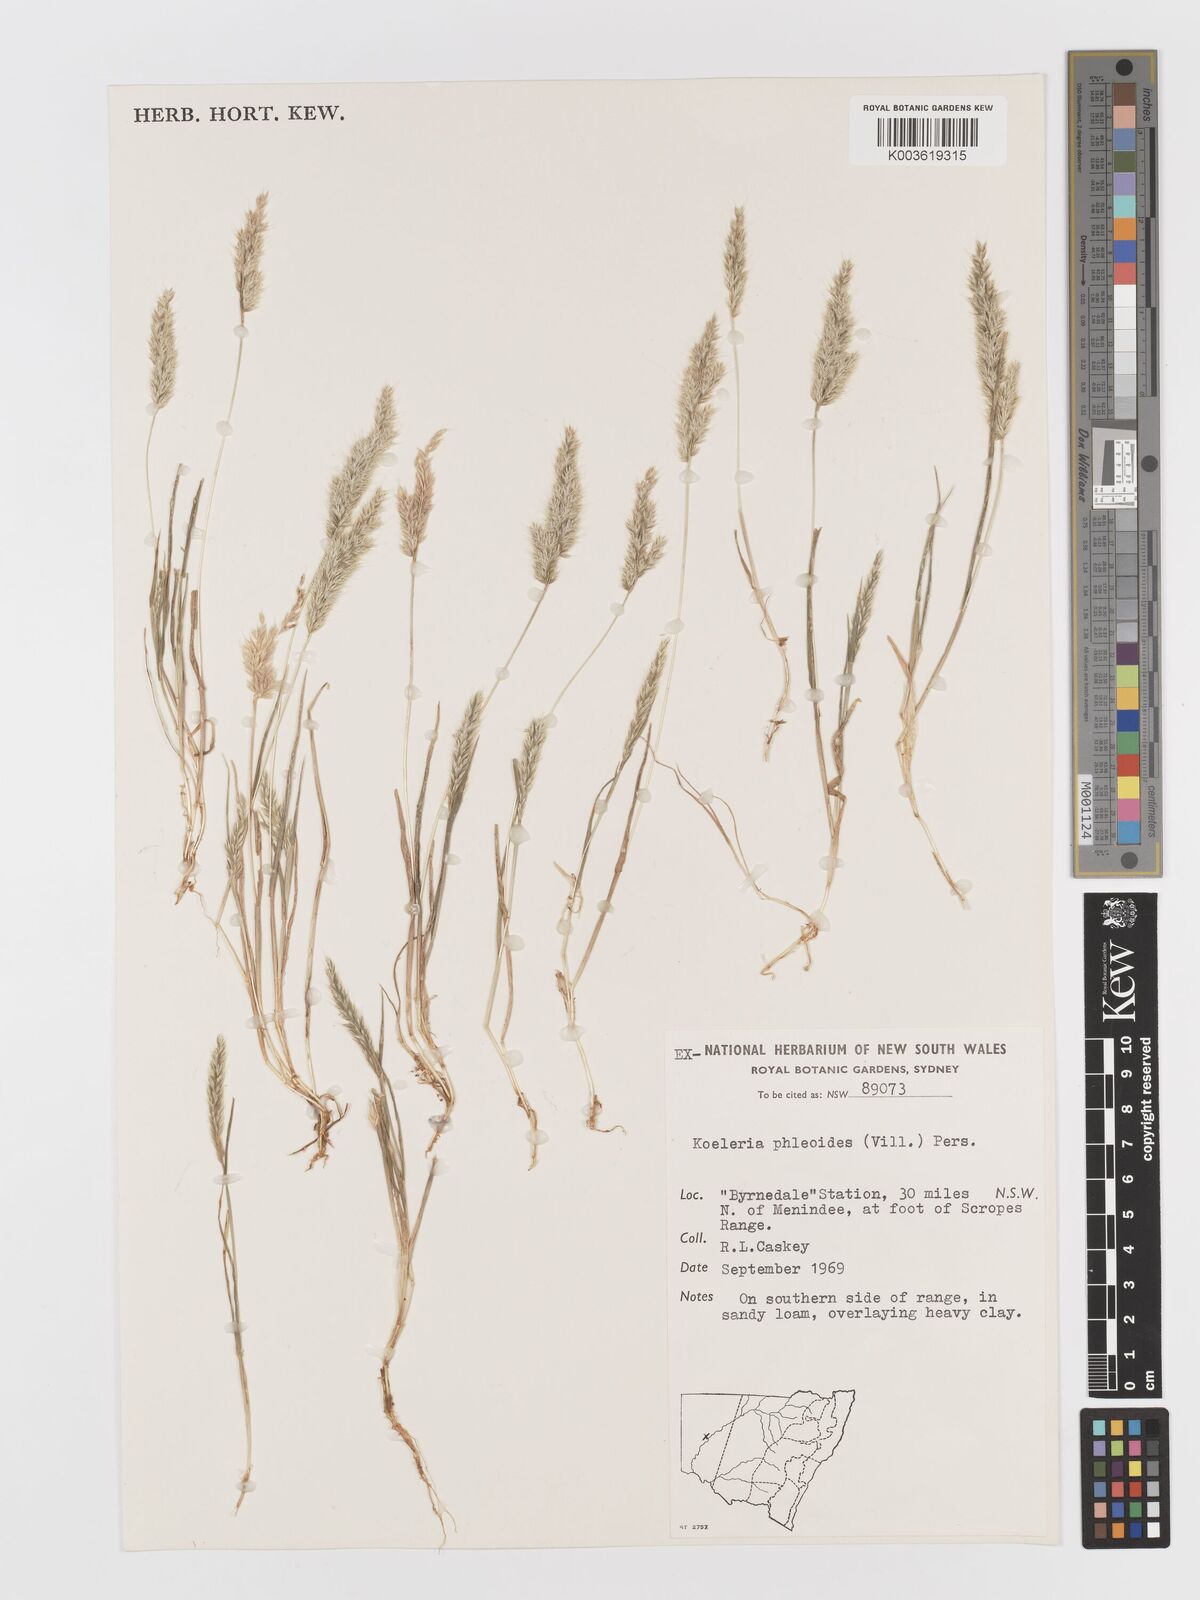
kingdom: Plantae
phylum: Tracheophyta
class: Liliopsida
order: Poales
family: Poaceae
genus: Rostraria
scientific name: Rostraria cristata
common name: Mediterranean hair-grass
